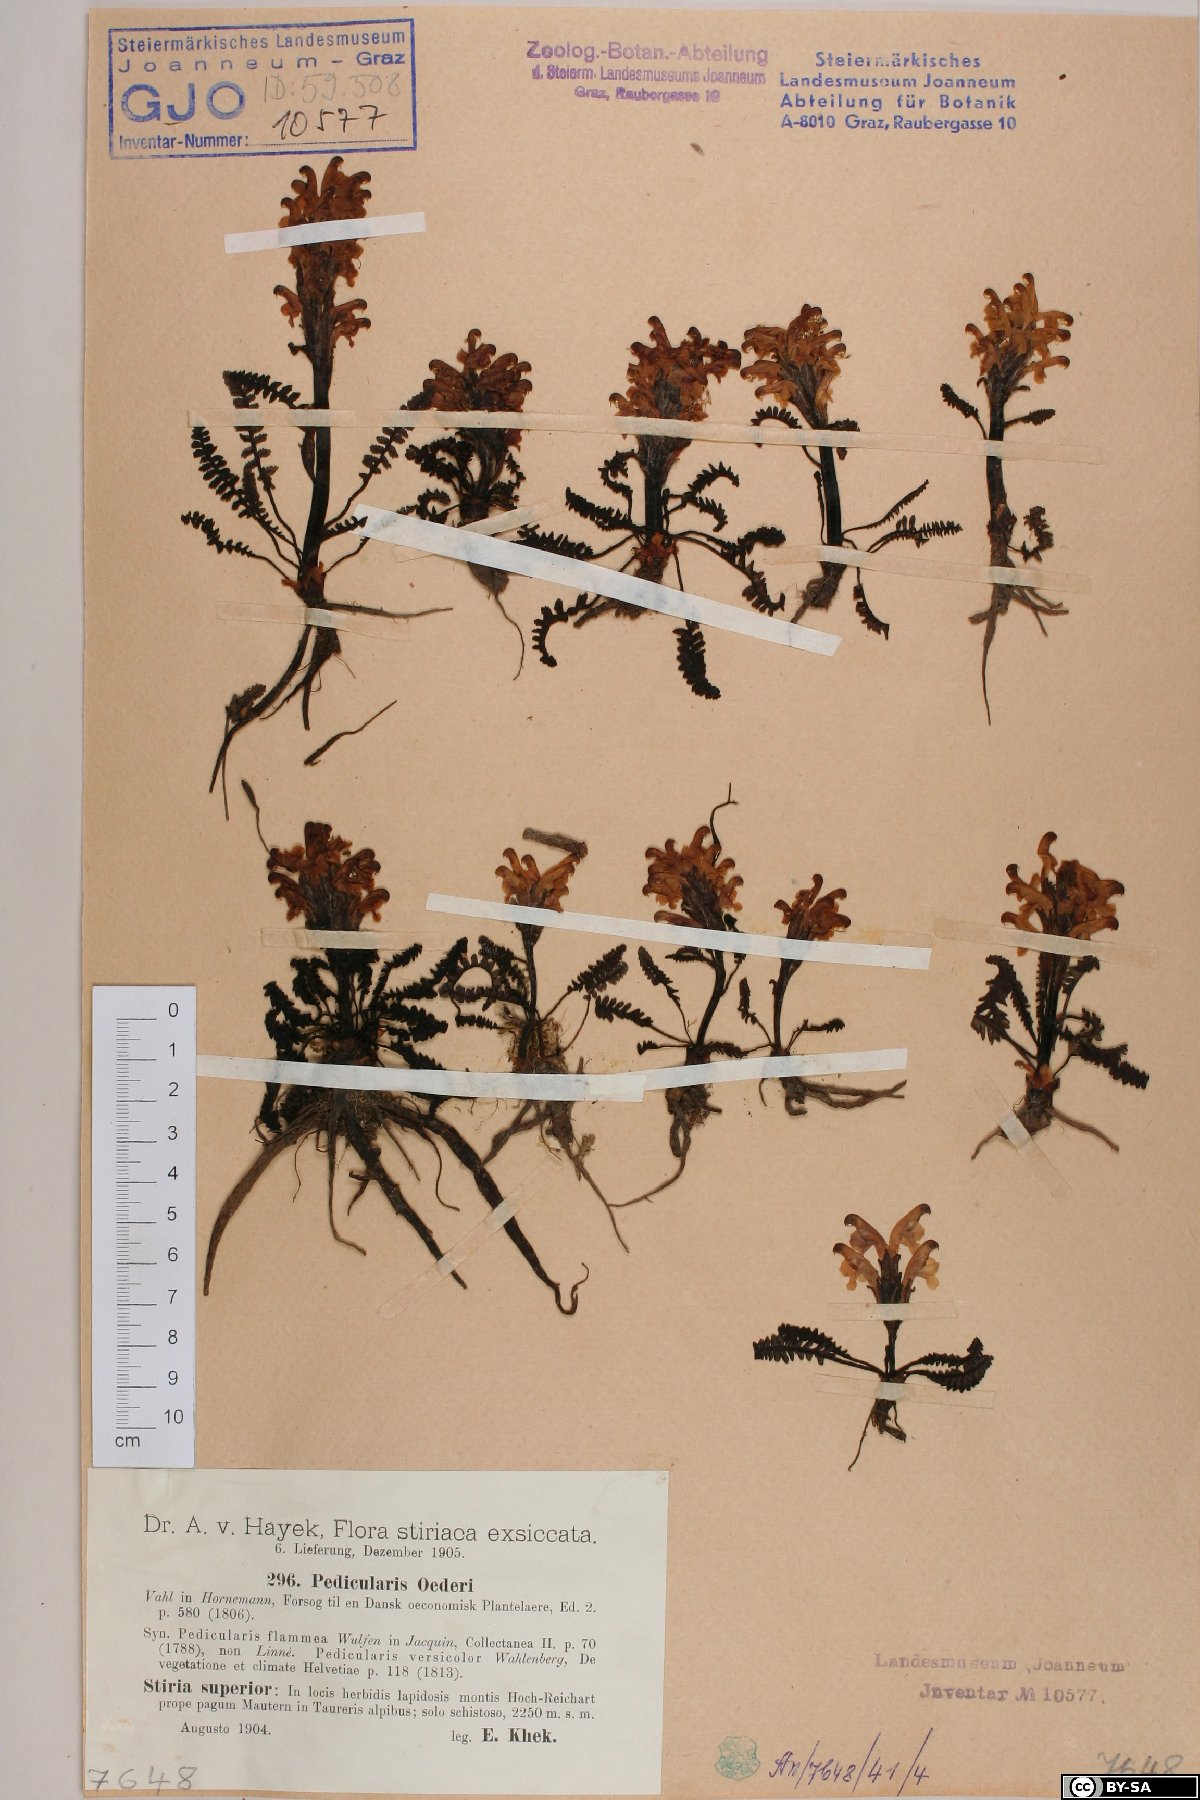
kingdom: Plantae
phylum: Tracheophyta
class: Magnoliopsida
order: Lamiales
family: Orobanchaceae
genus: Pedicularis
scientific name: Pedicularis oederi
